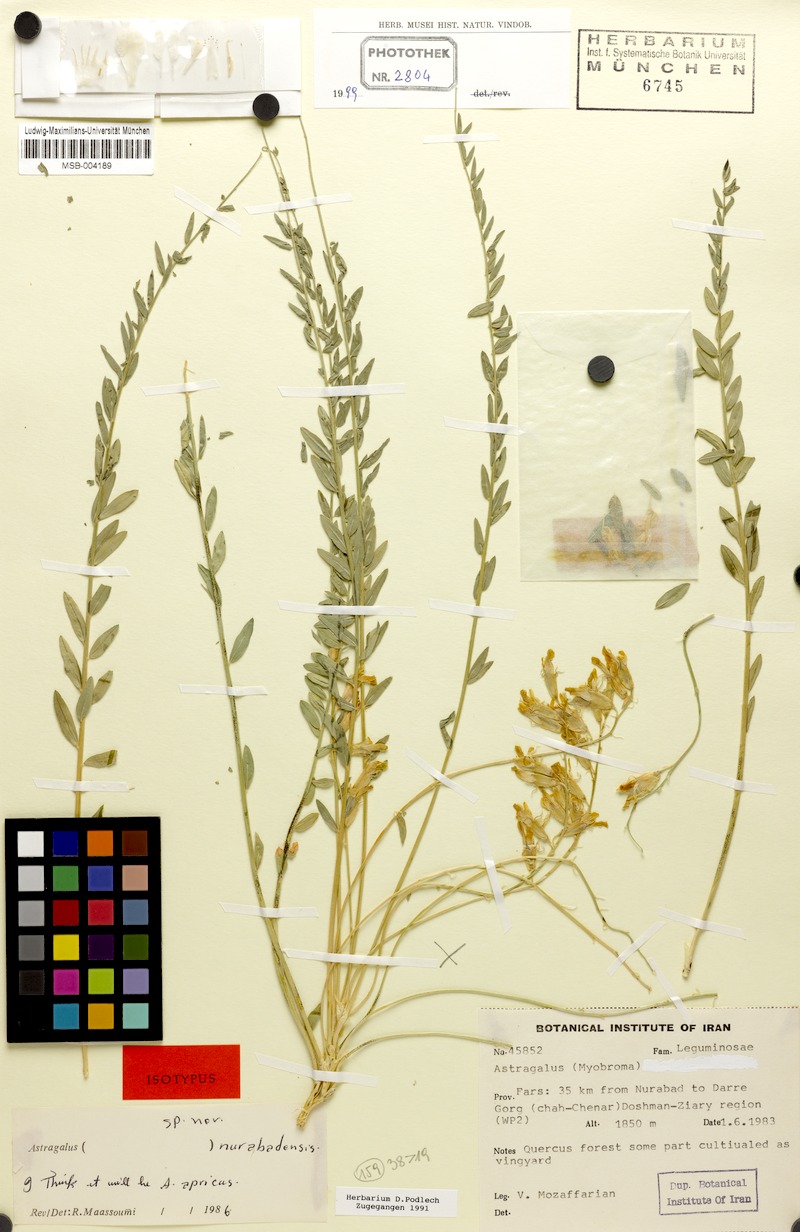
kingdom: Plantae
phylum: Tracheophyta
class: Magnoliopsida
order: Fabales
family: Fabaceae
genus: Astragalus
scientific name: Astragalus nurabadensis
